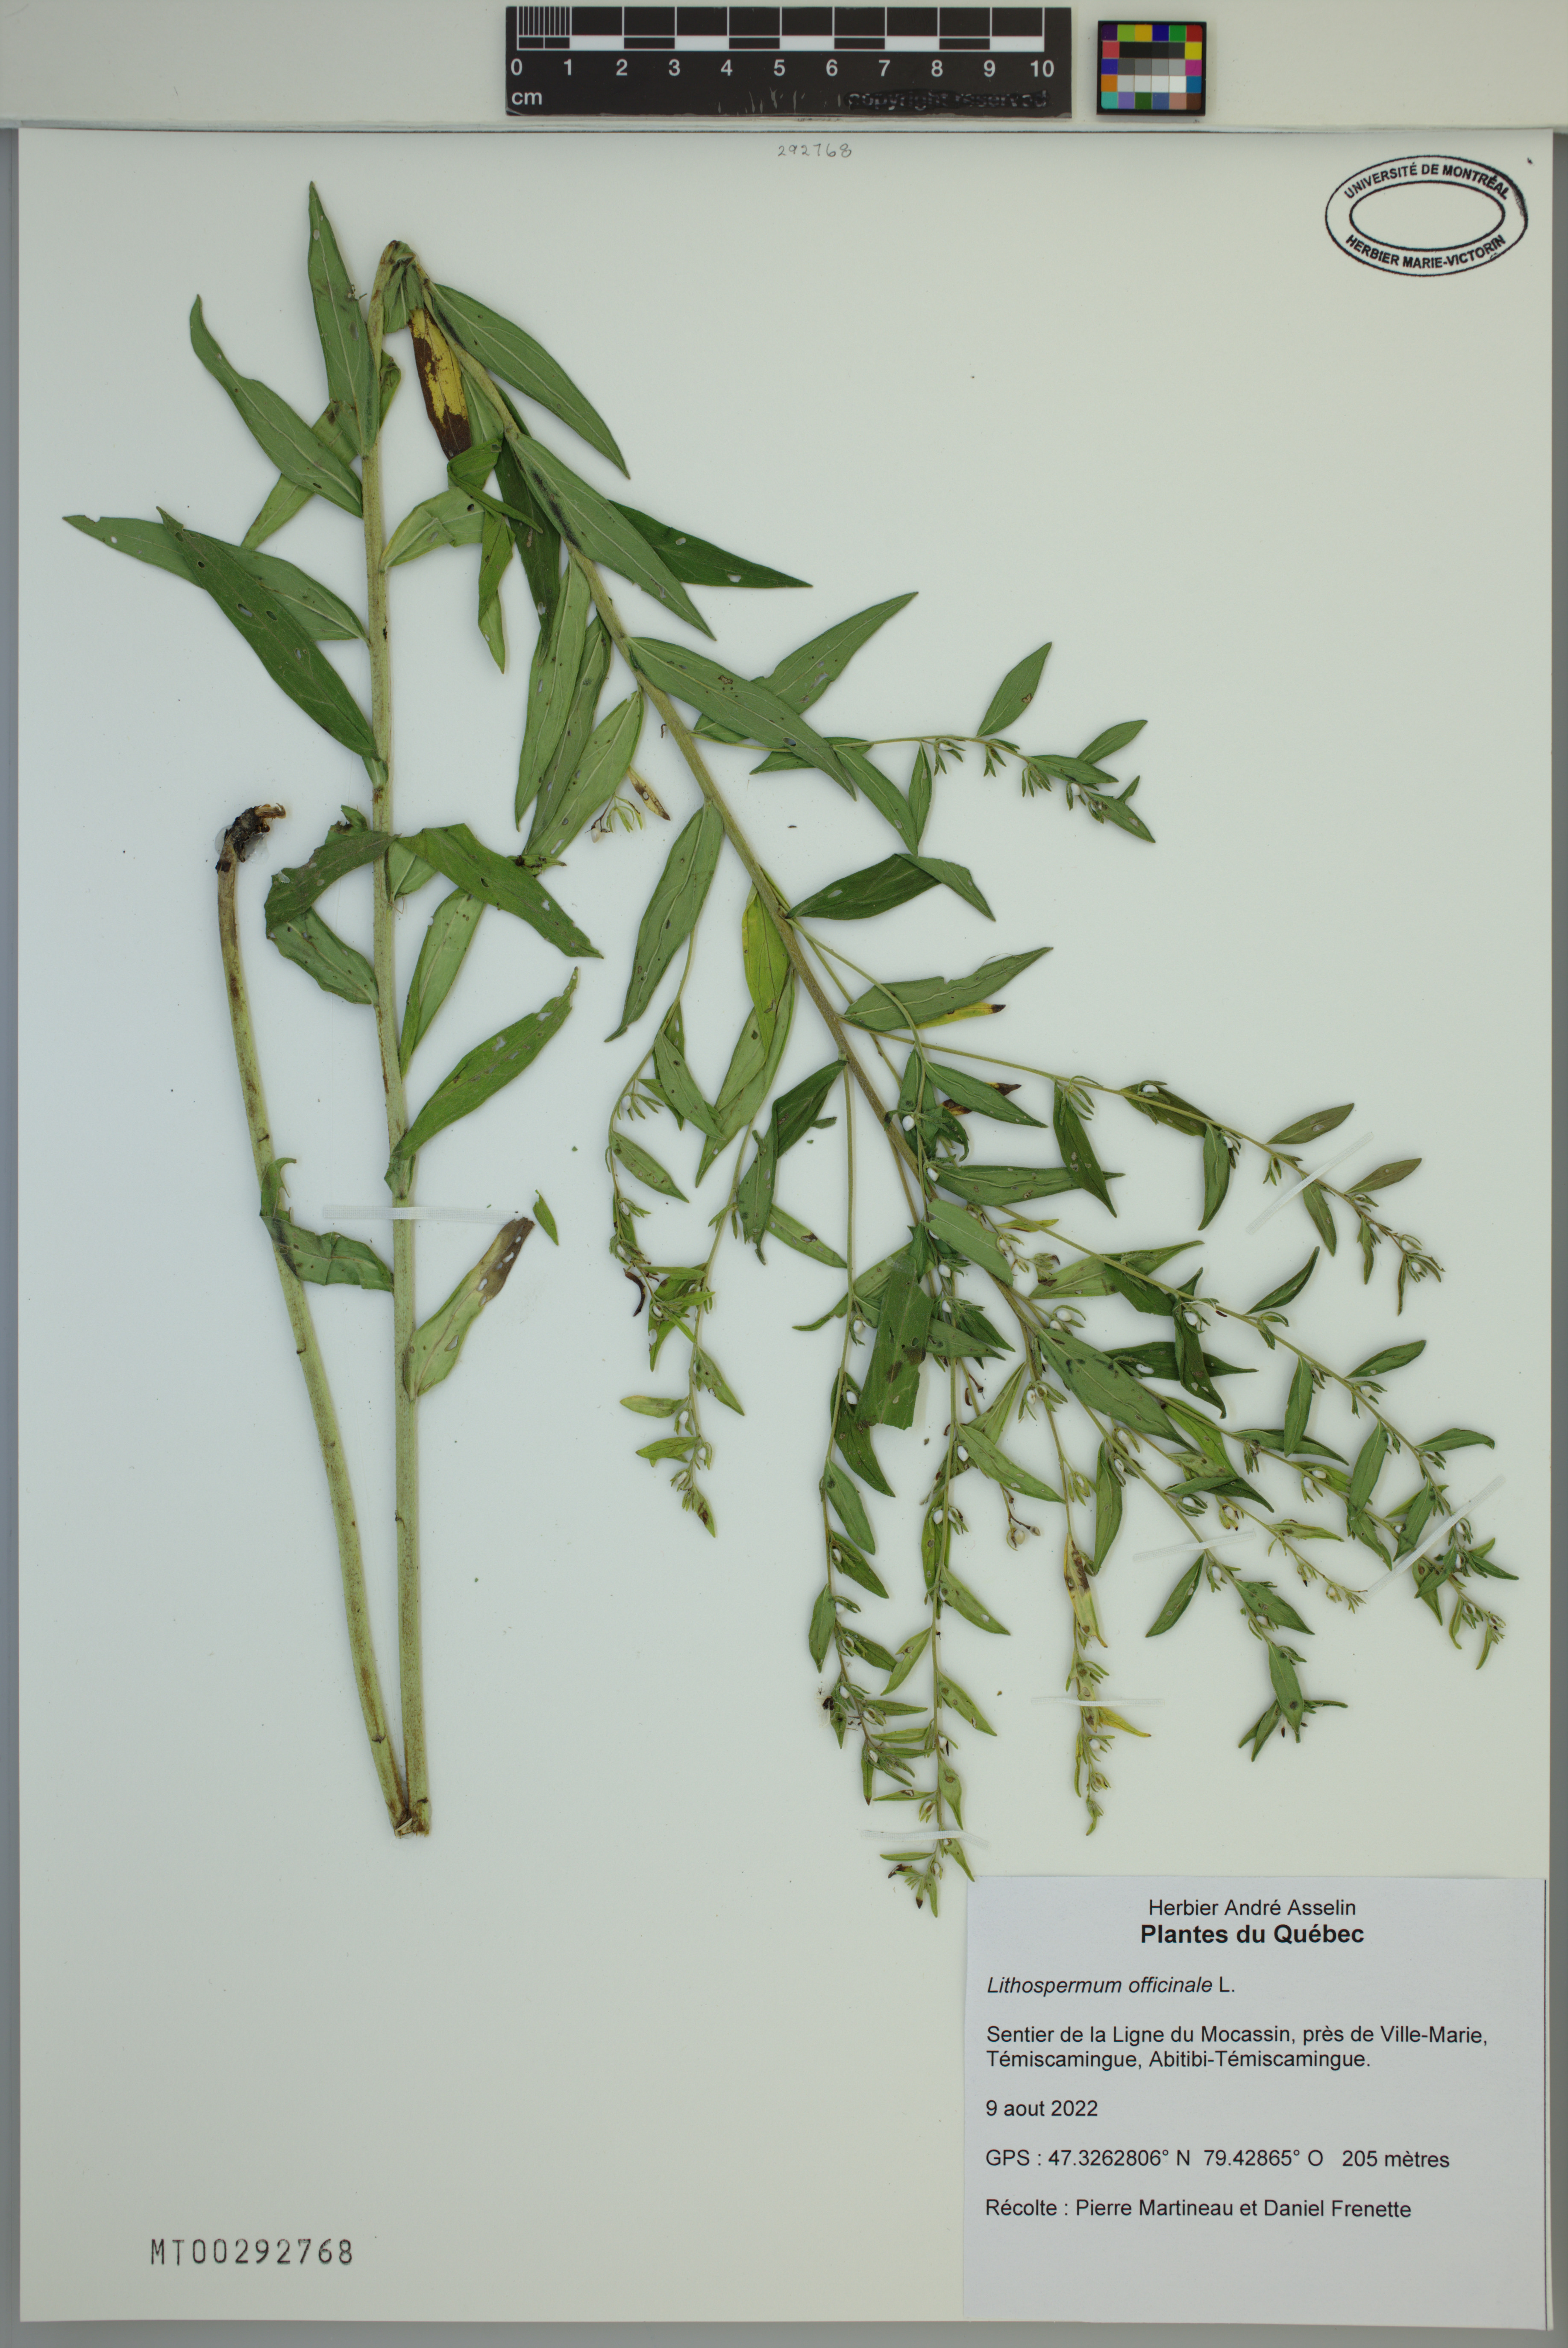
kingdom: Plantae
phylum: Tracheophyta
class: Magnoliopsida
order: Boraginales
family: Boraginaceae
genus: Lithospermum
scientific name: Lithospermum officinale
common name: Common gromwell
